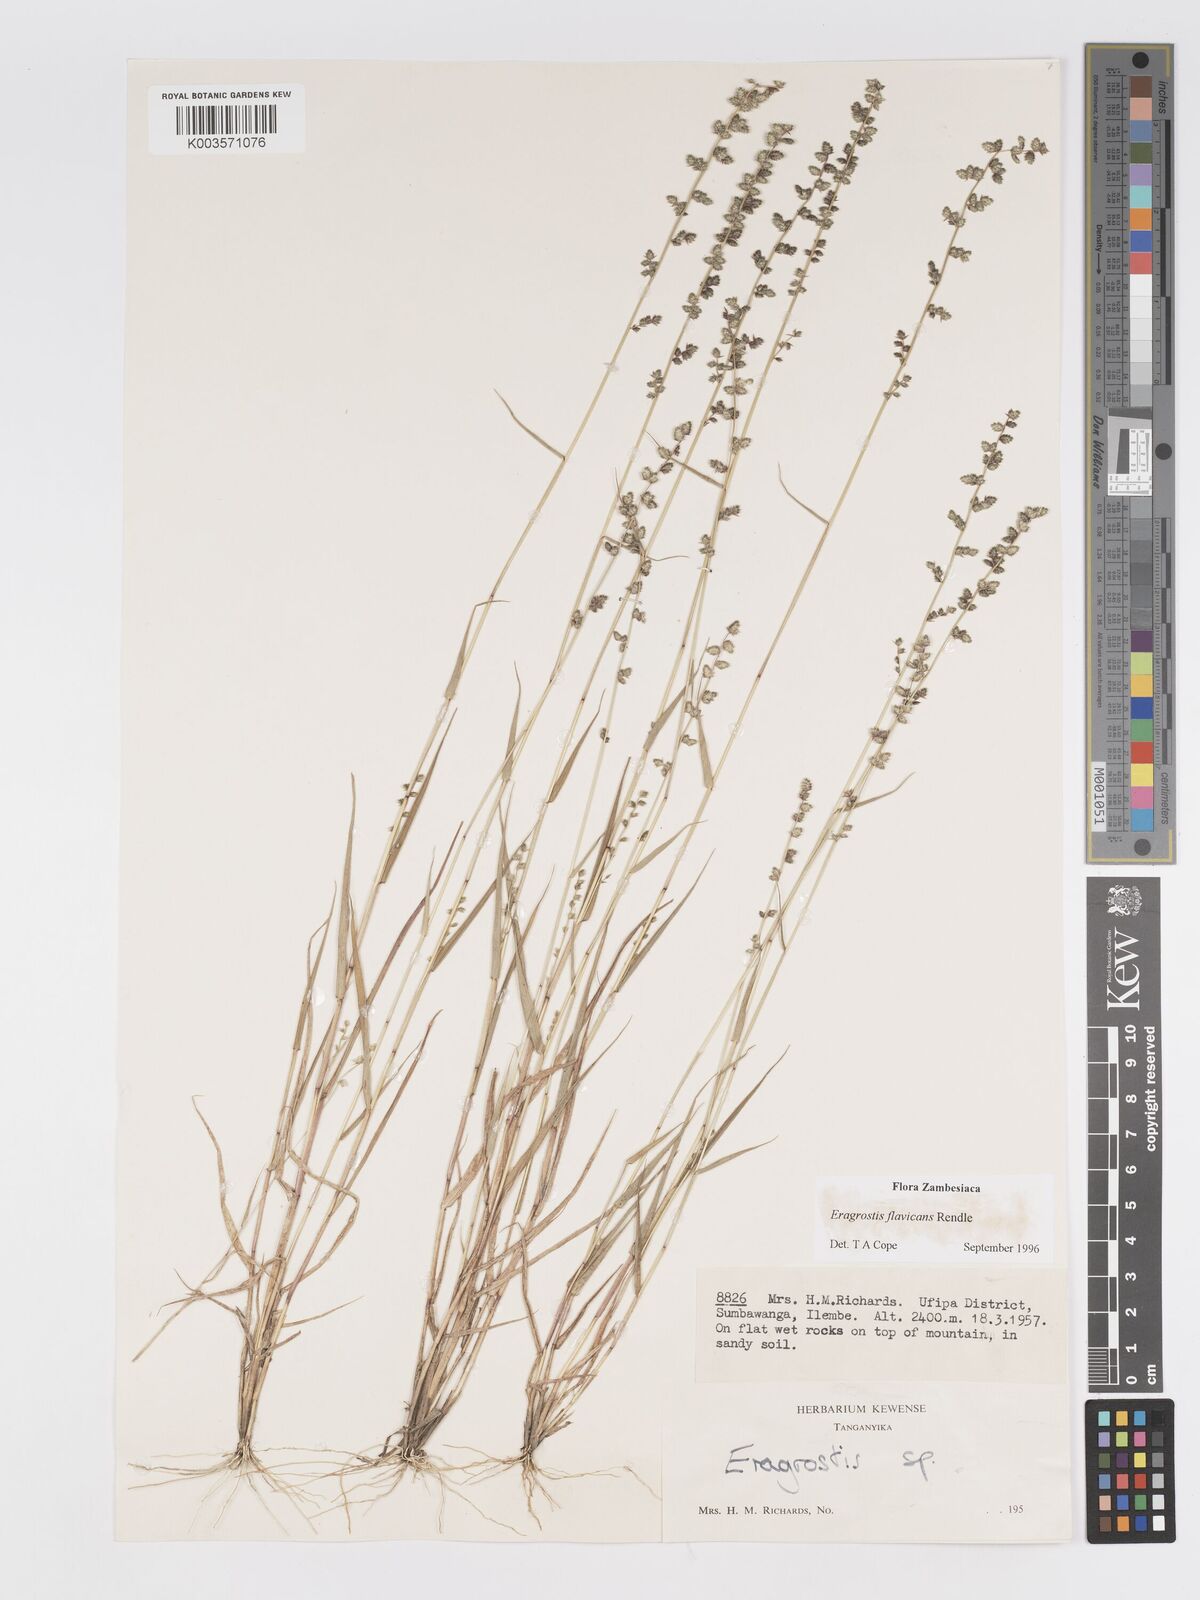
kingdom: Plantae
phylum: Tracheophyta
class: Liliopsida
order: Poales
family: Poaceae
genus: Eragrostis
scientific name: Eragrostis flavicans
